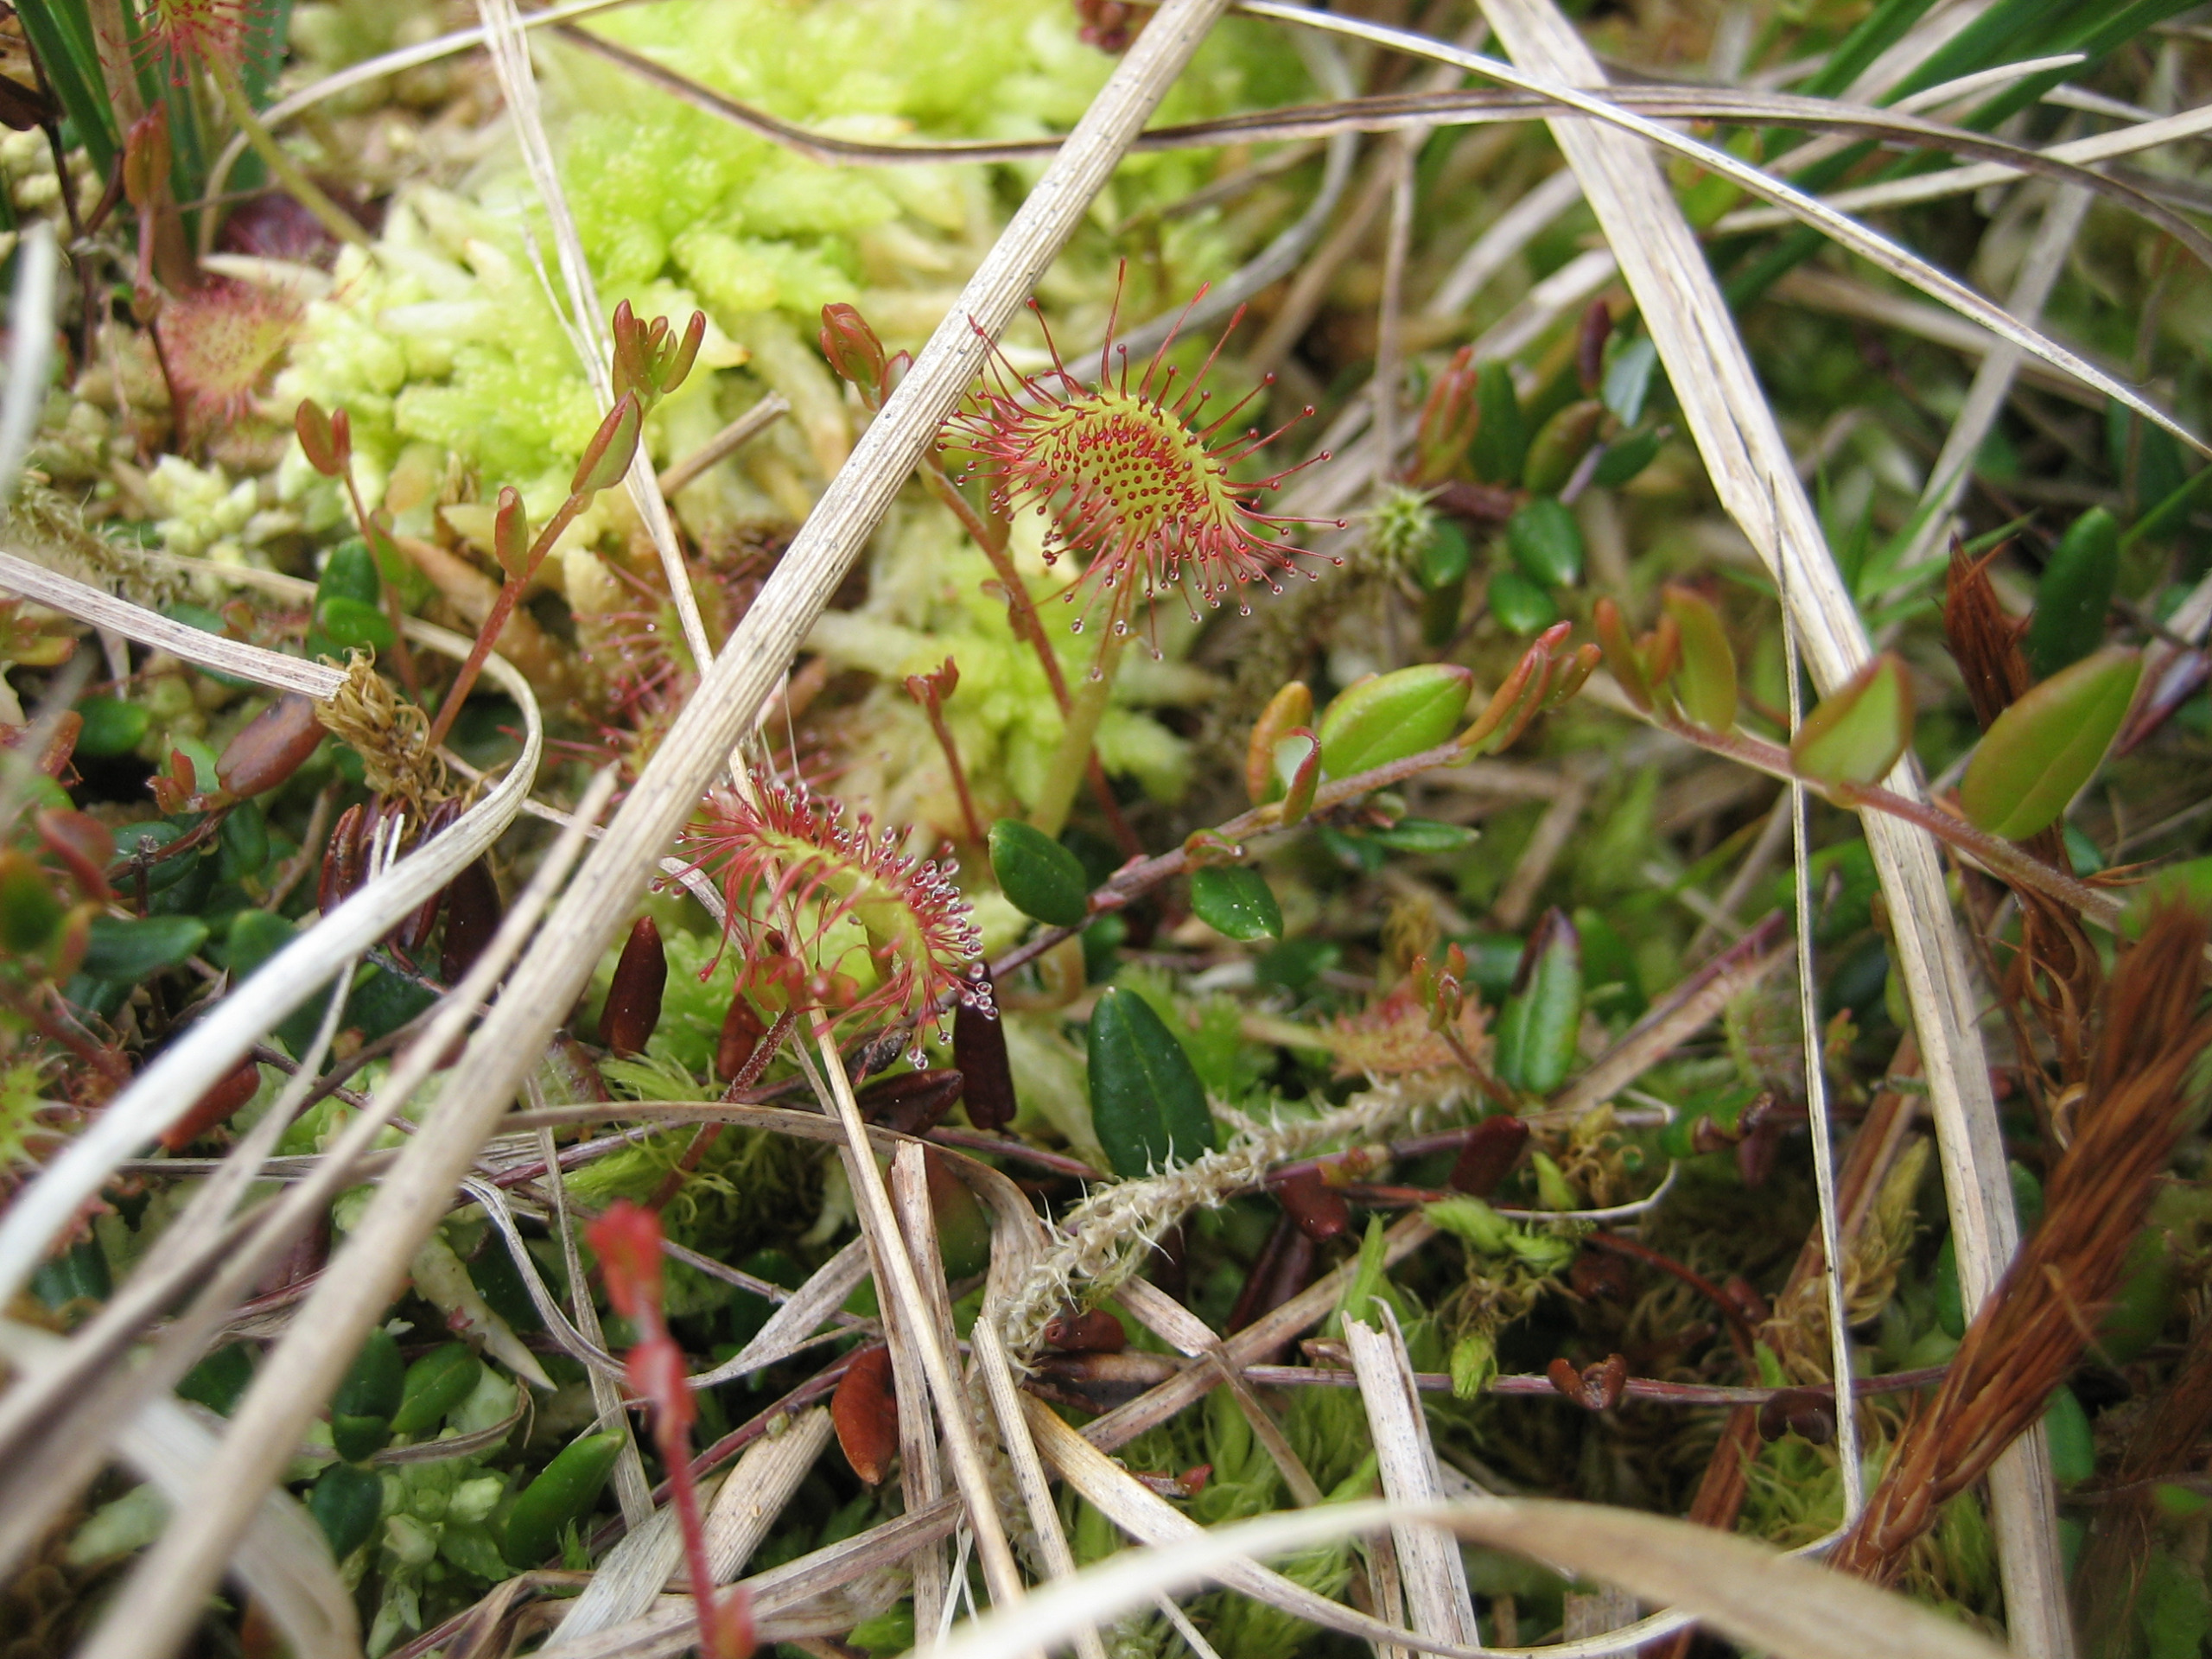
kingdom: Plantae
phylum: Tracheophyta
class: Magnoliopsida
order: Caryophyllales
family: Droseraceae
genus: Drosera
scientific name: Drosera rotundifolia
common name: Rundbladet soldug
